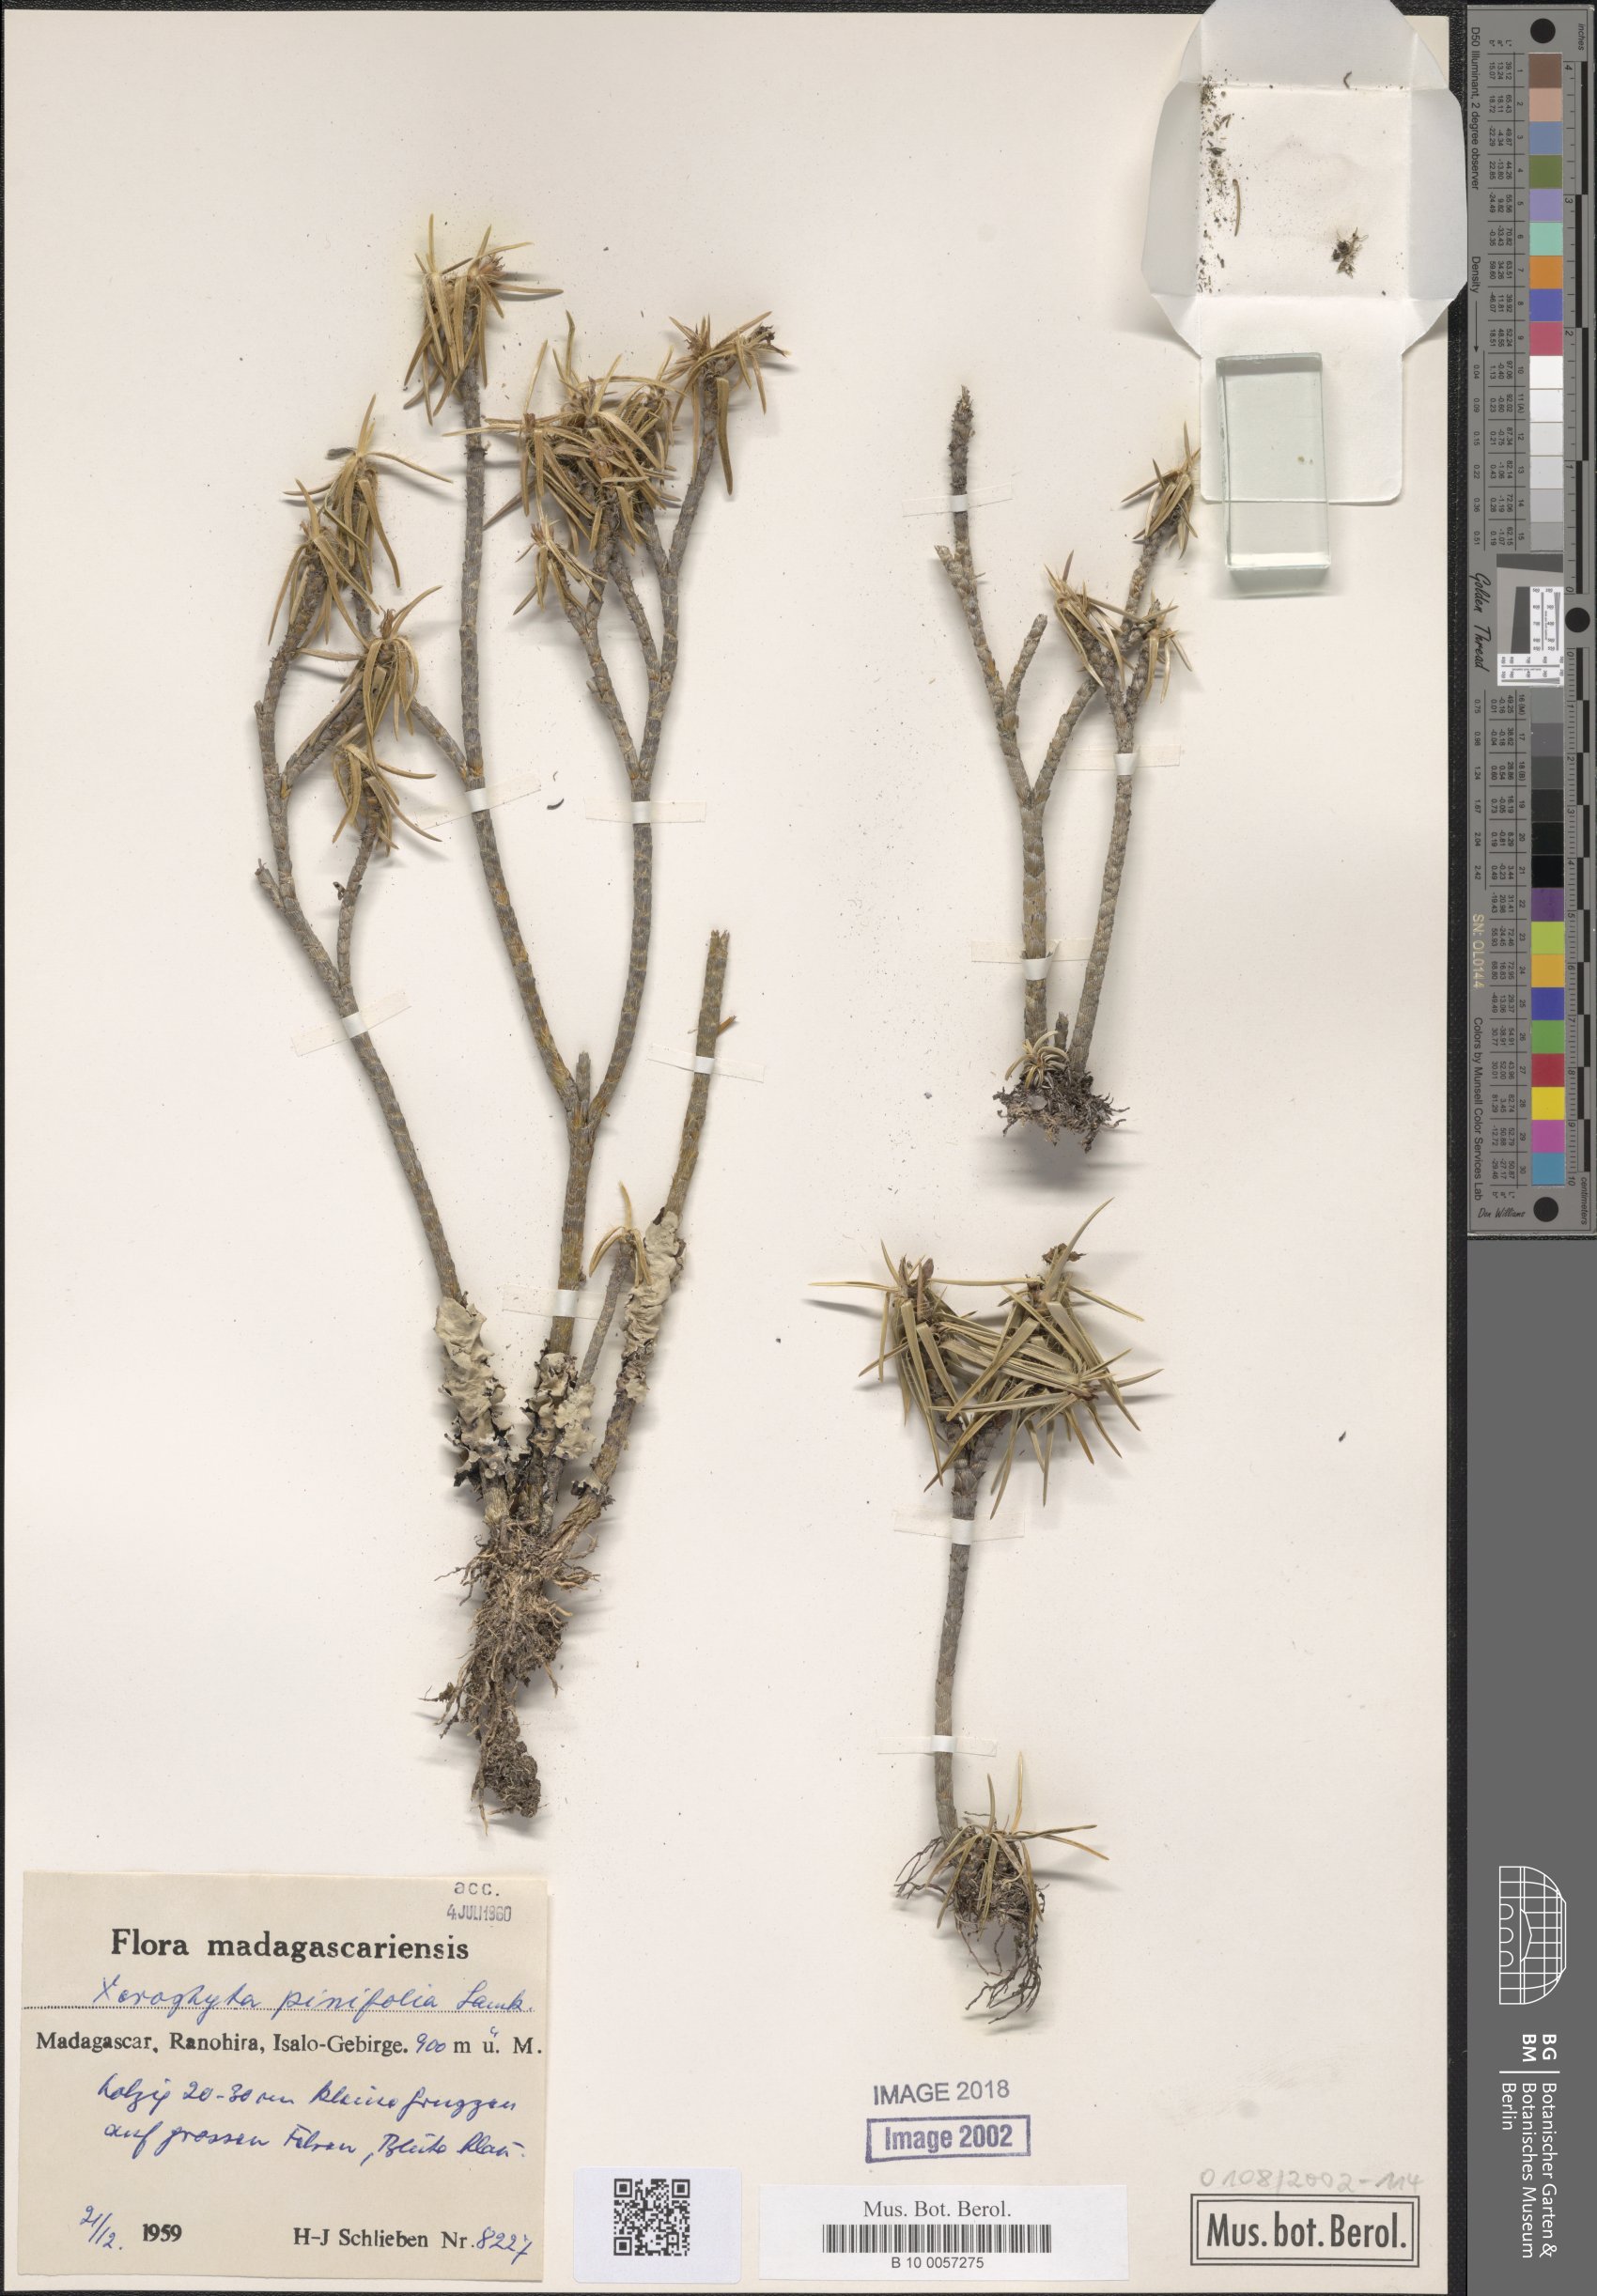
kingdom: Plantae
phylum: Tracheophyta
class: Liliopsida
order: Pandanales
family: Velloziaceae
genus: Xerophyta
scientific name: Xerophyta pinifolia
